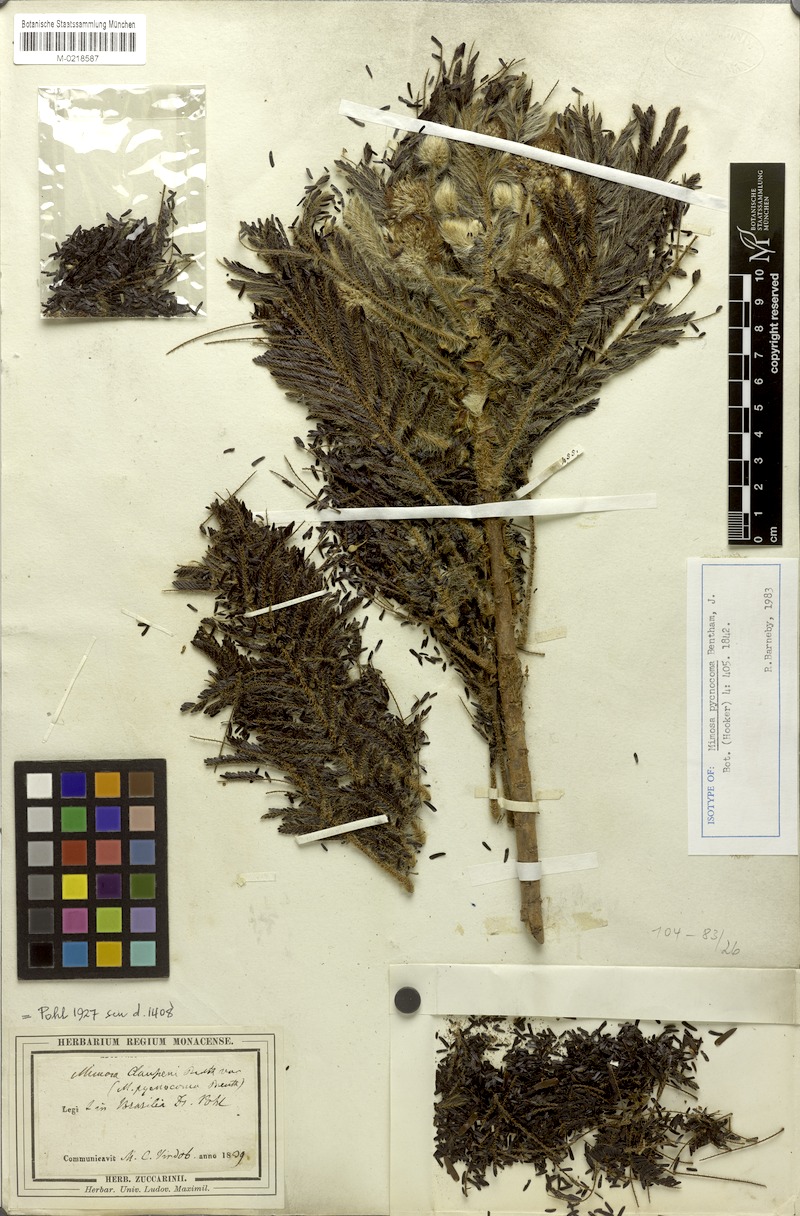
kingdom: Plantae
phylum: Tracheophyta
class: Magnoliopsida
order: Fabales
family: Fabaceae
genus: Mimosa
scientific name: Mimosa pycnocoma
